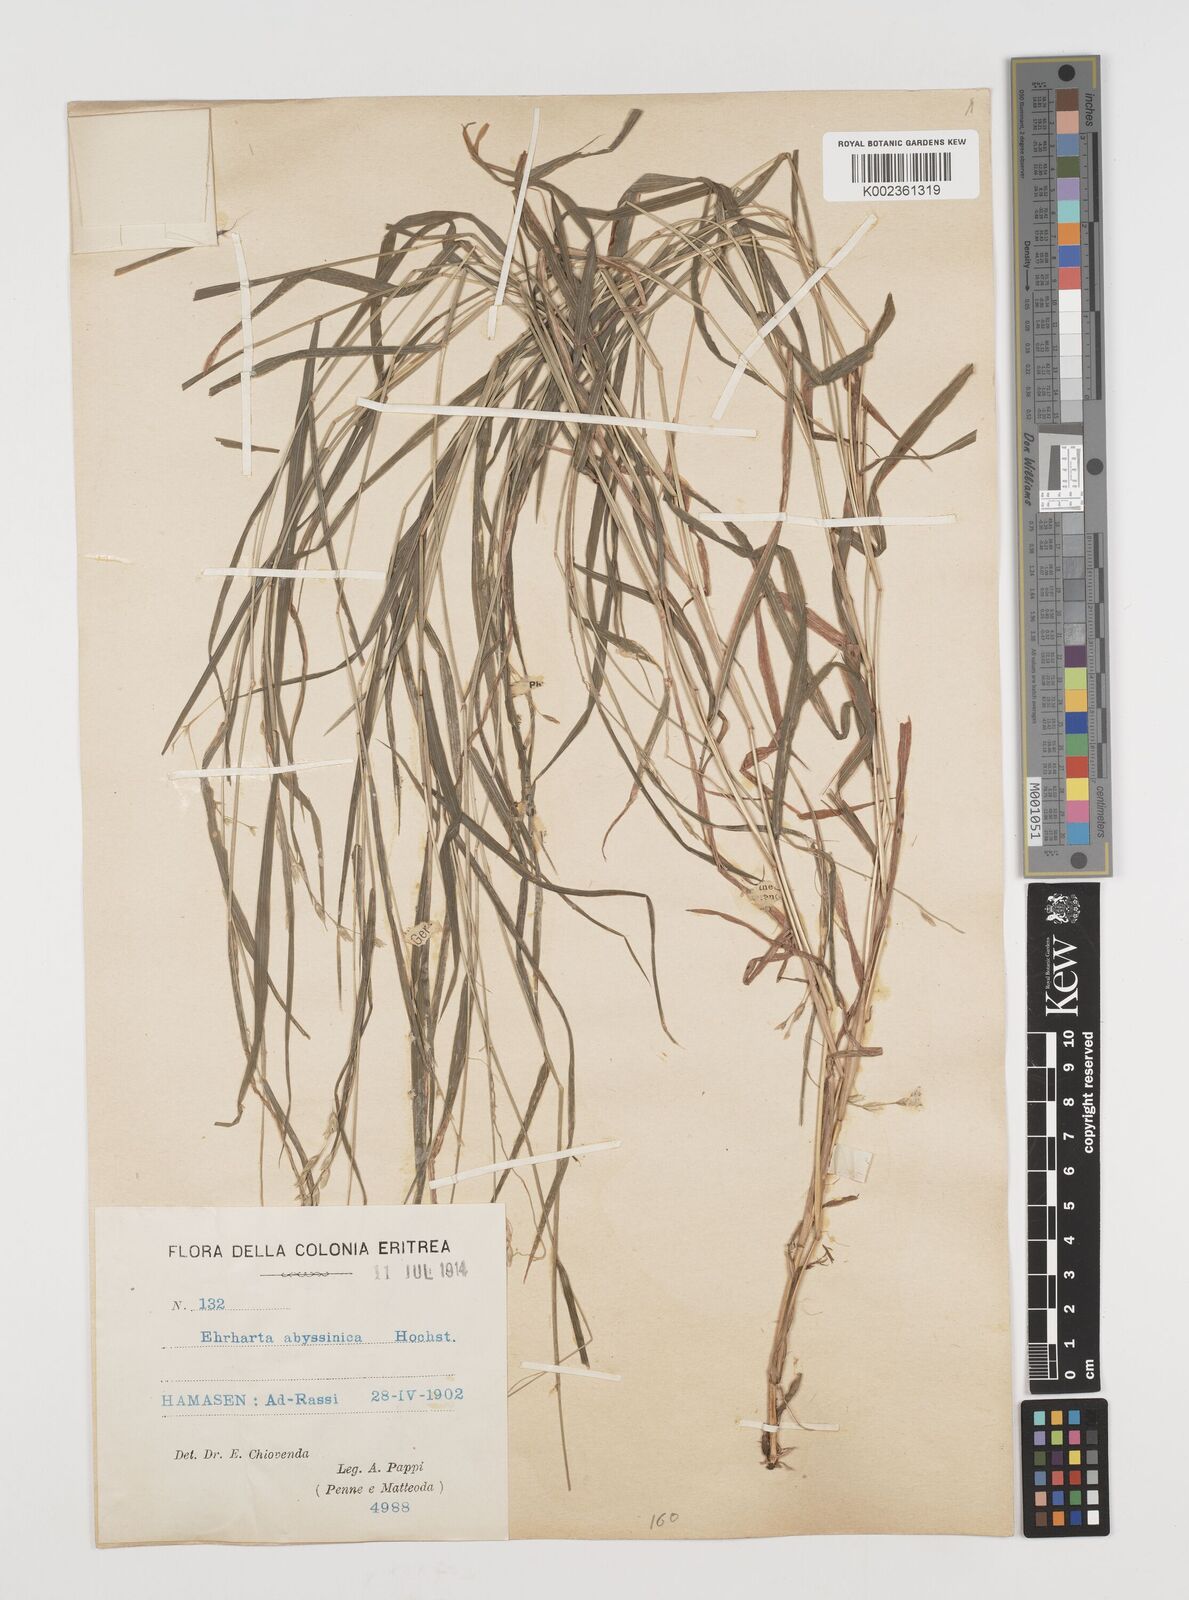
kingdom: Plantae
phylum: Tracheophyta
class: Liliopsida
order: Poales
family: Poaceae
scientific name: Poaceae
